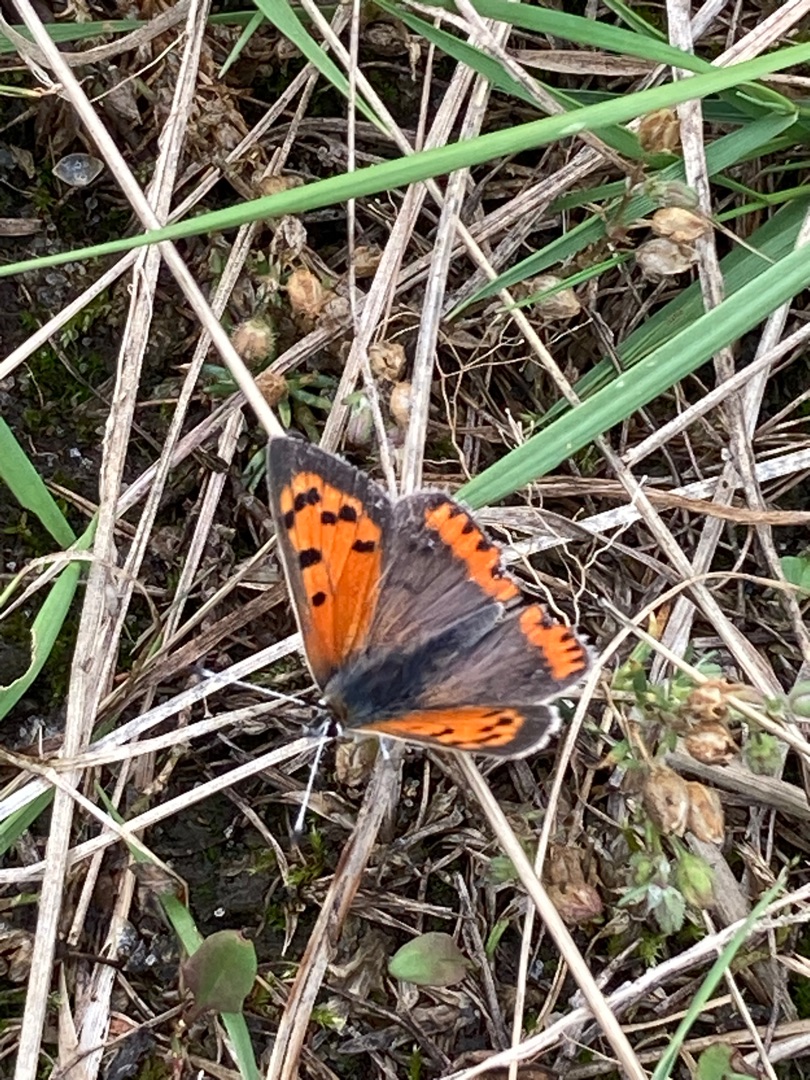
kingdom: Animalia
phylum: Arthropoda
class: Insecta
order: Lepidoptera
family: Lycaenidae
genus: Lycaena
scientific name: Lycaena phlaeas
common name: Lille ildfugl
